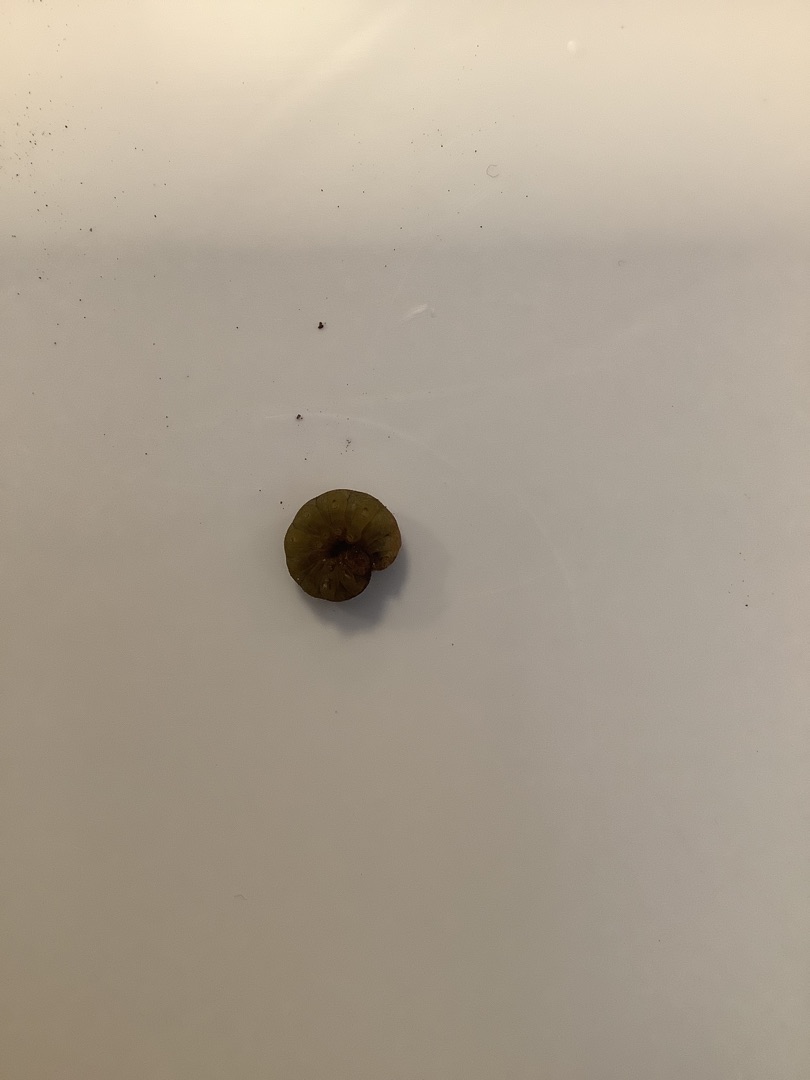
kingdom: Animalia
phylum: Arthropoda
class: Insecta
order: Lepidoptera
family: Noctuidae
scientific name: Noctuidae
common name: Ugler
